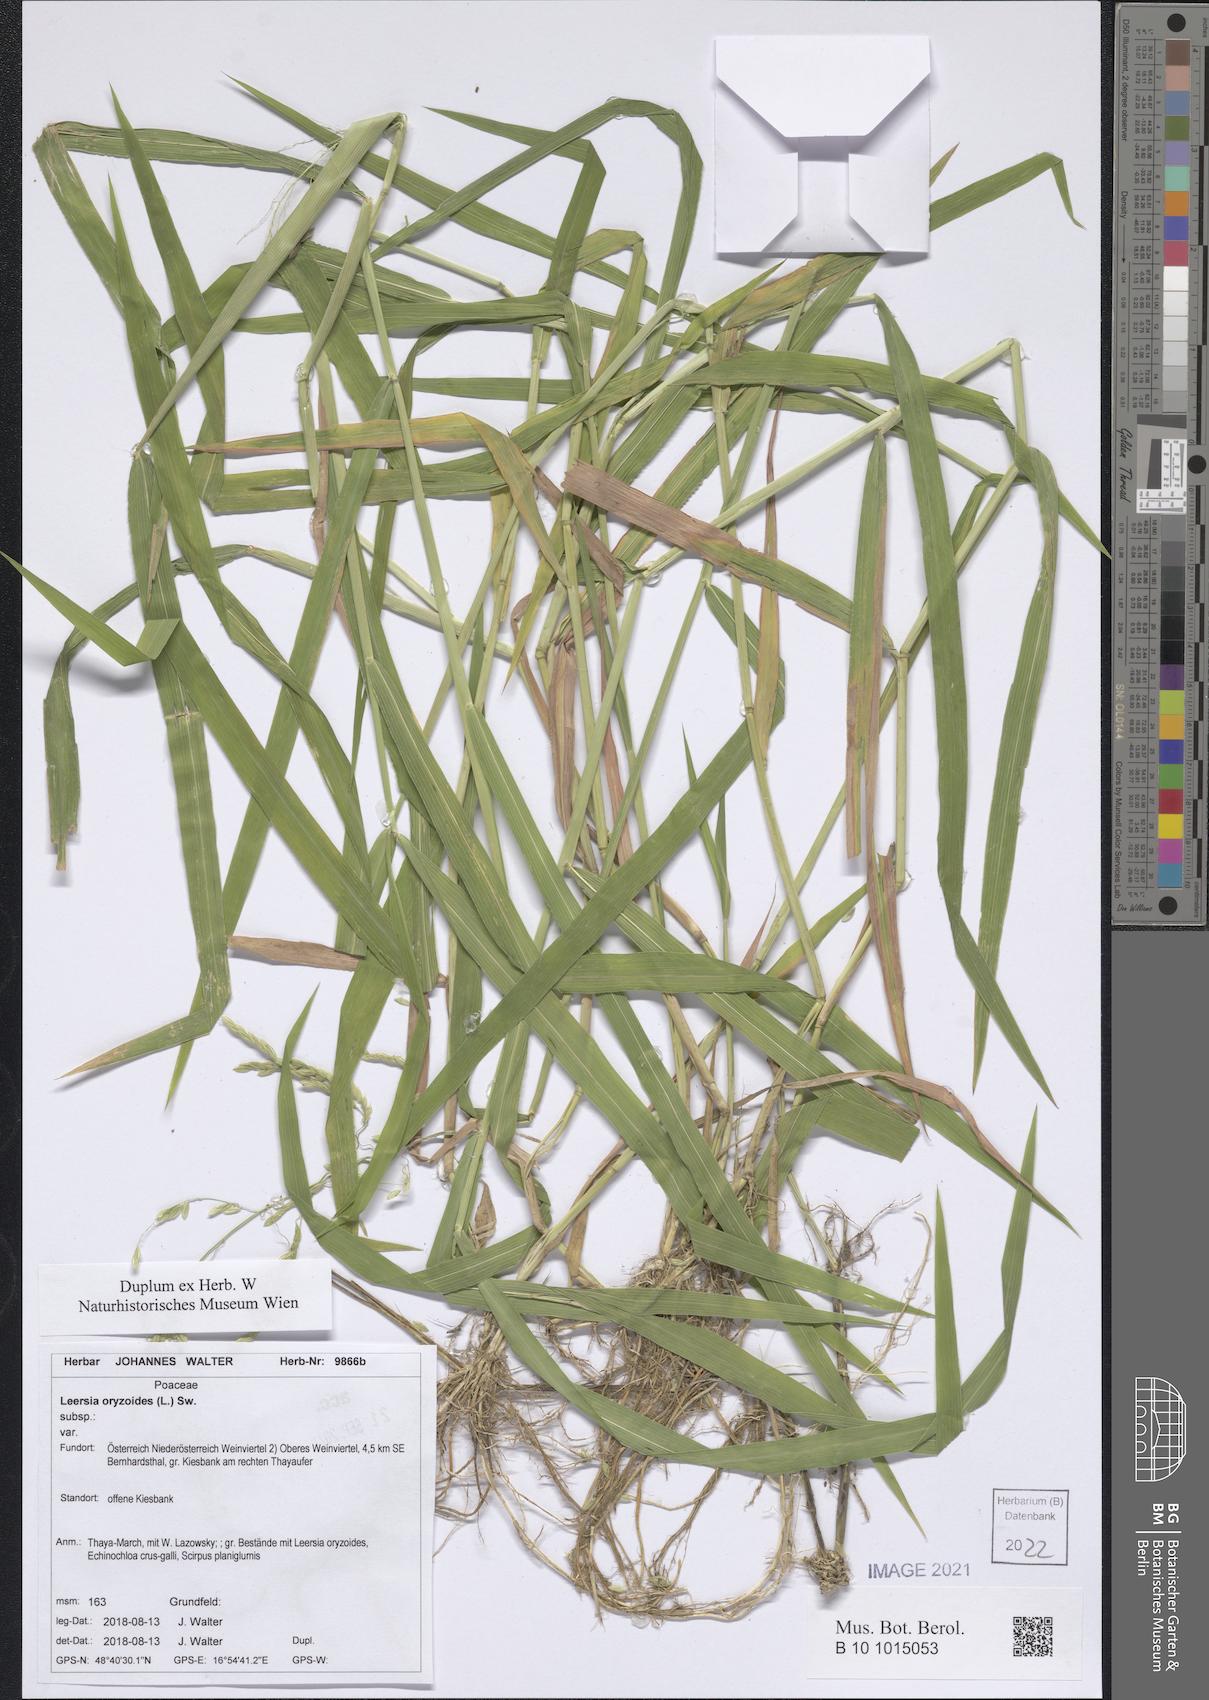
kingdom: Plantae
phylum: Tracheophyta
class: Liliopsida
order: Poales
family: Poaceae
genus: Leersia
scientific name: Leersia oryzoides
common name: Cut-grass
